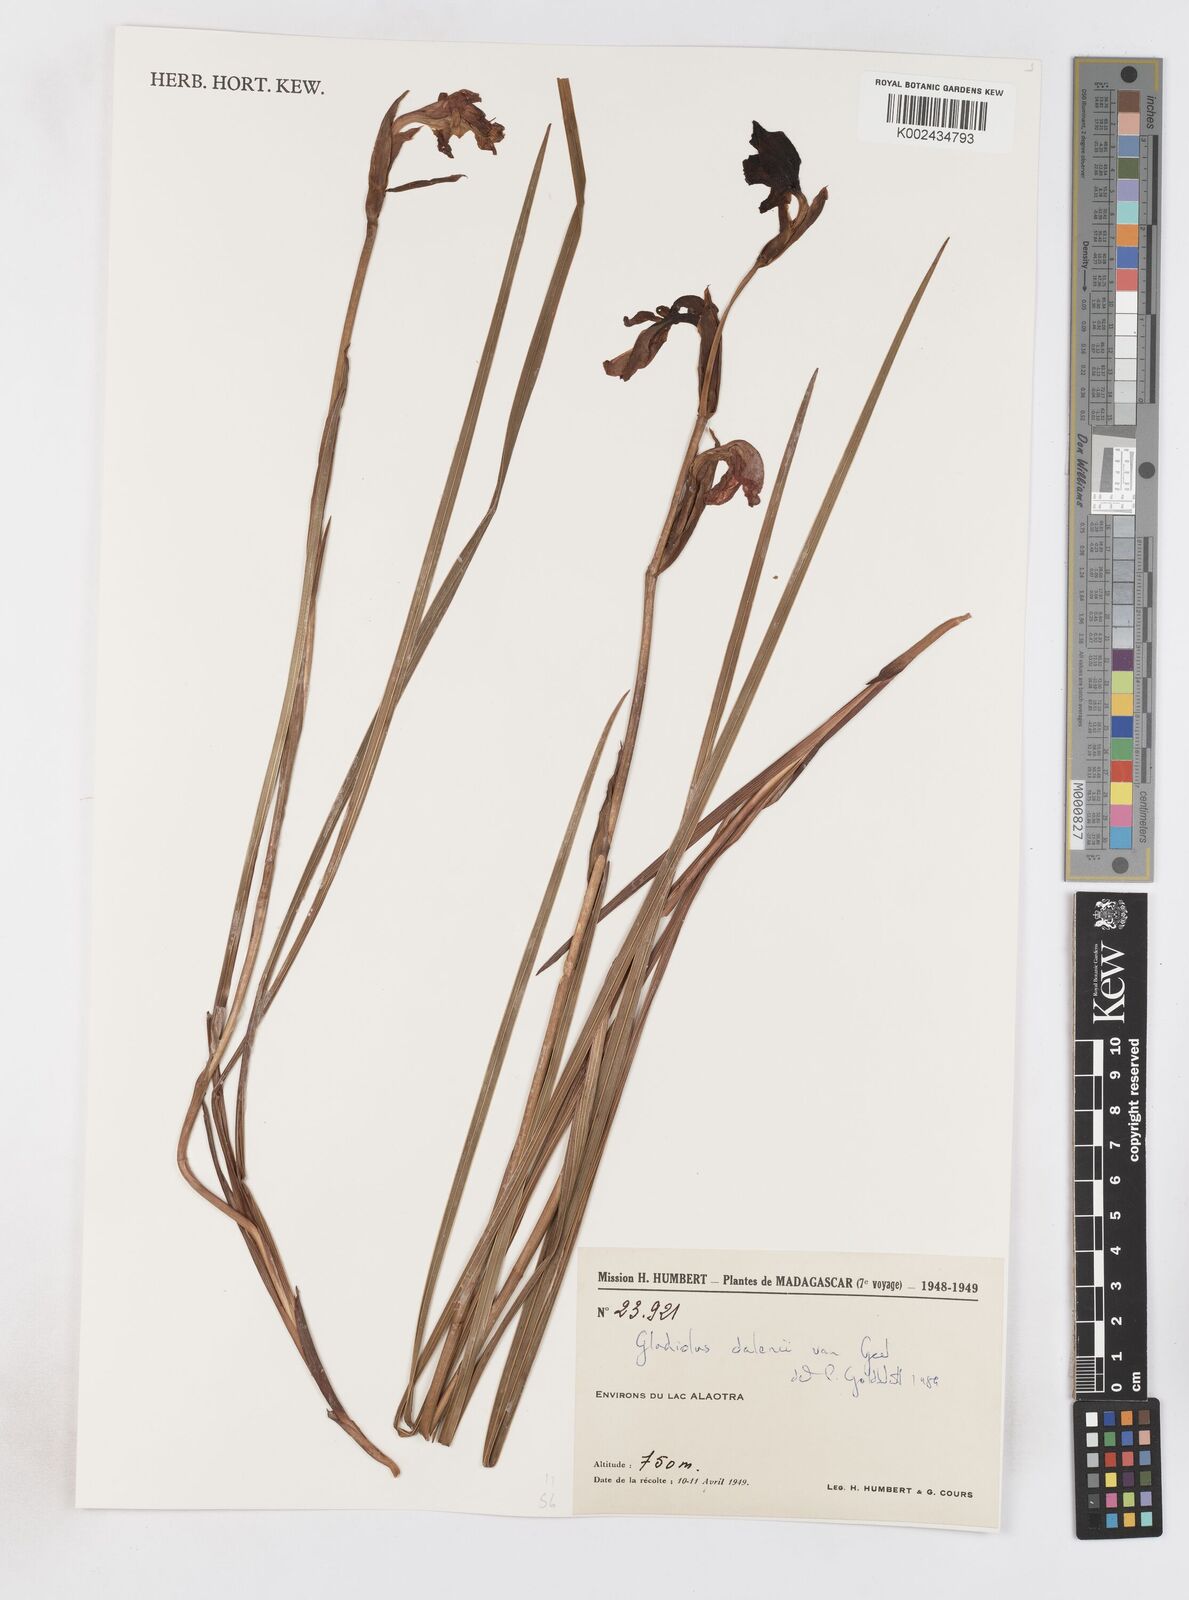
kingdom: Plantae
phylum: Tracheophyta
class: Liliopsida
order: Asparagales
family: Iridaceae
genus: Gladiolus
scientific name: Gladiolus dalenii
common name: Cornflag
